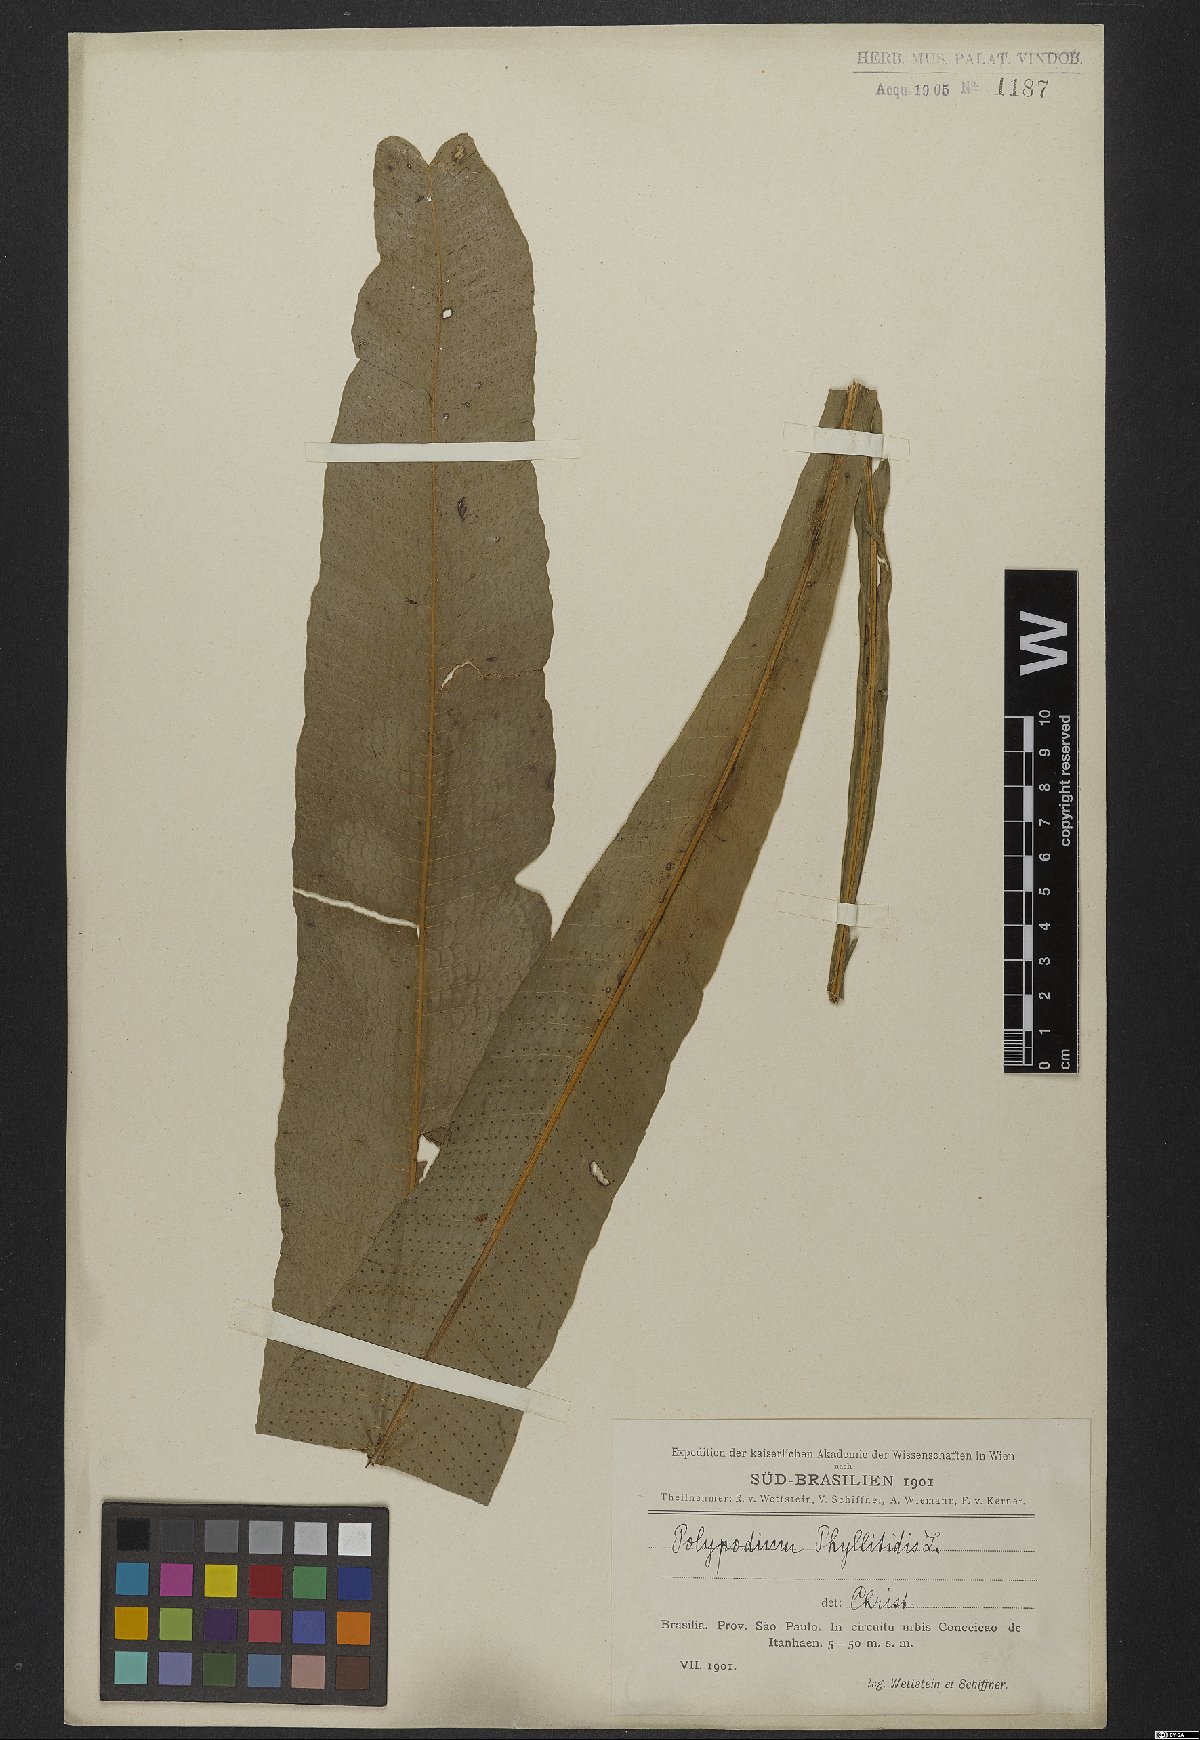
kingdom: Plantae
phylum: Tracheophyta
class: Polypodiopsida
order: Polypodiales
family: Polypodiaceae
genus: Campyloneurum
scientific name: Campyloneurum phyllitidis
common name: Cow-tongue fern
